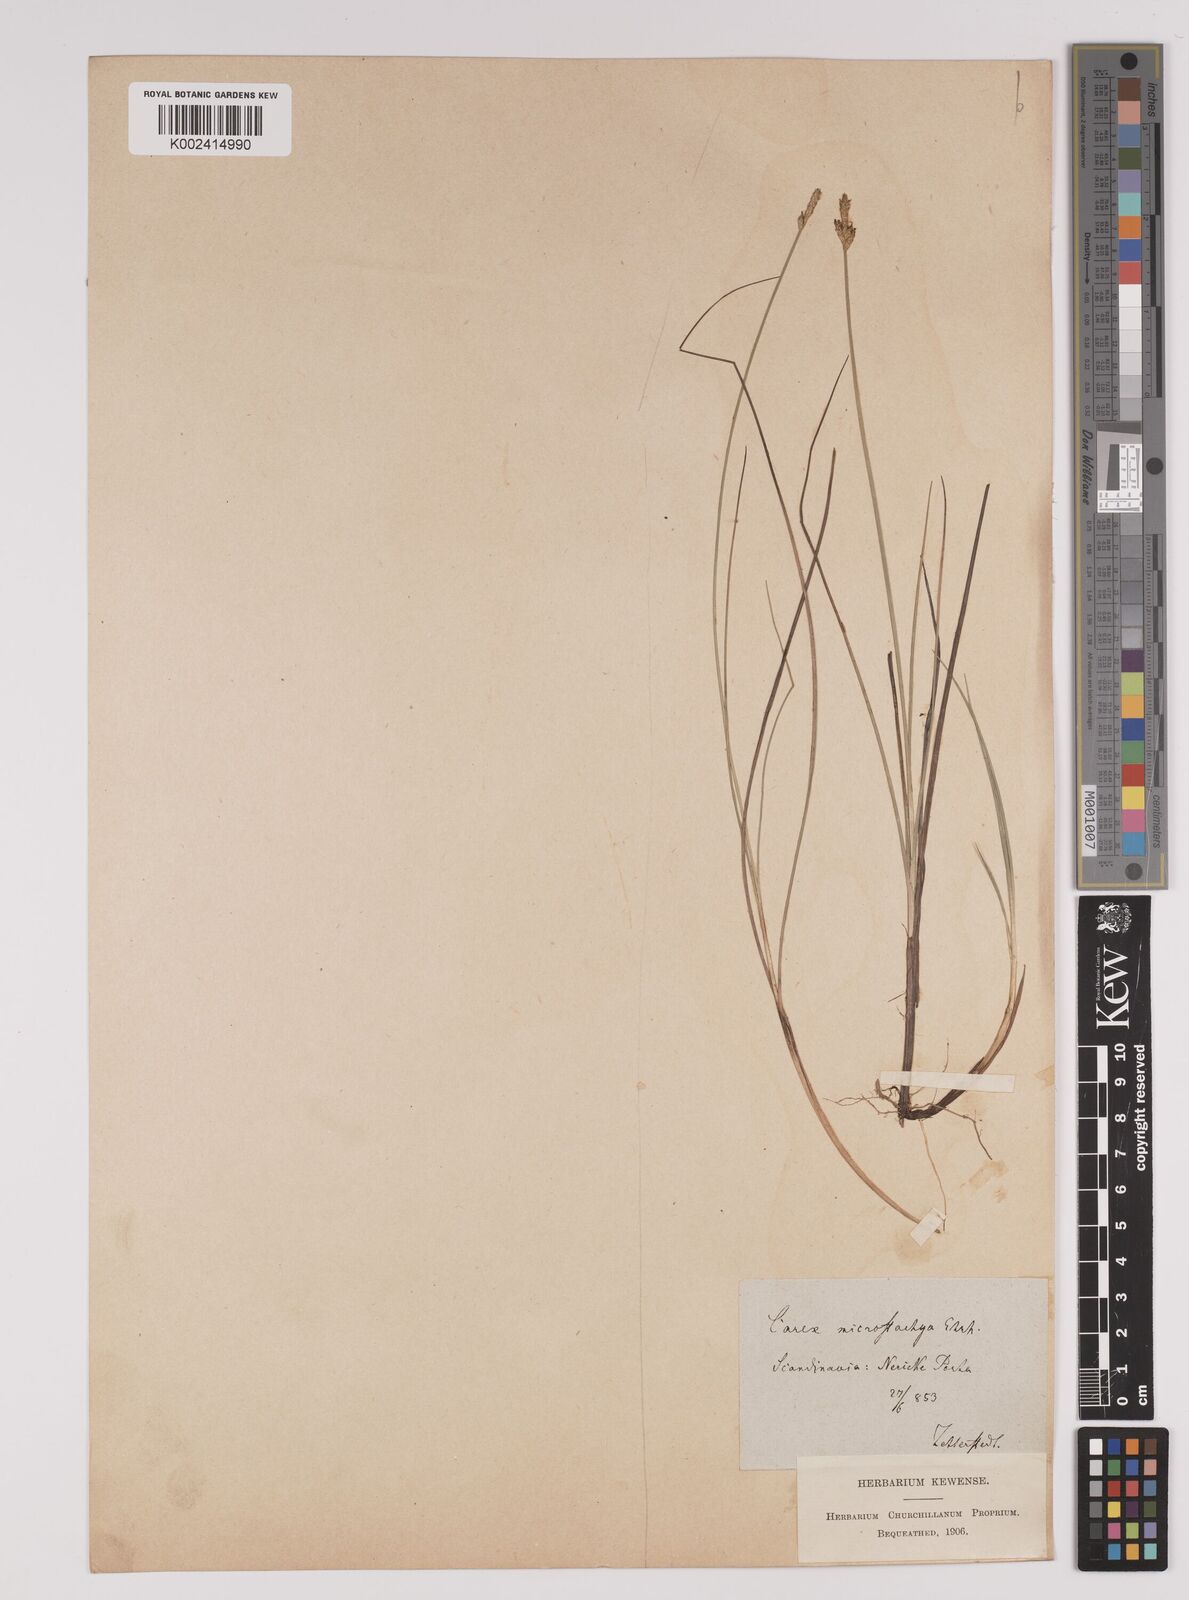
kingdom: Plantae
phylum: Tracheophyta
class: Liliopsida
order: Poales
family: Cyperaceae
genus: Carex
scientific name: Carex dioica
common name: Dioecious sedge
